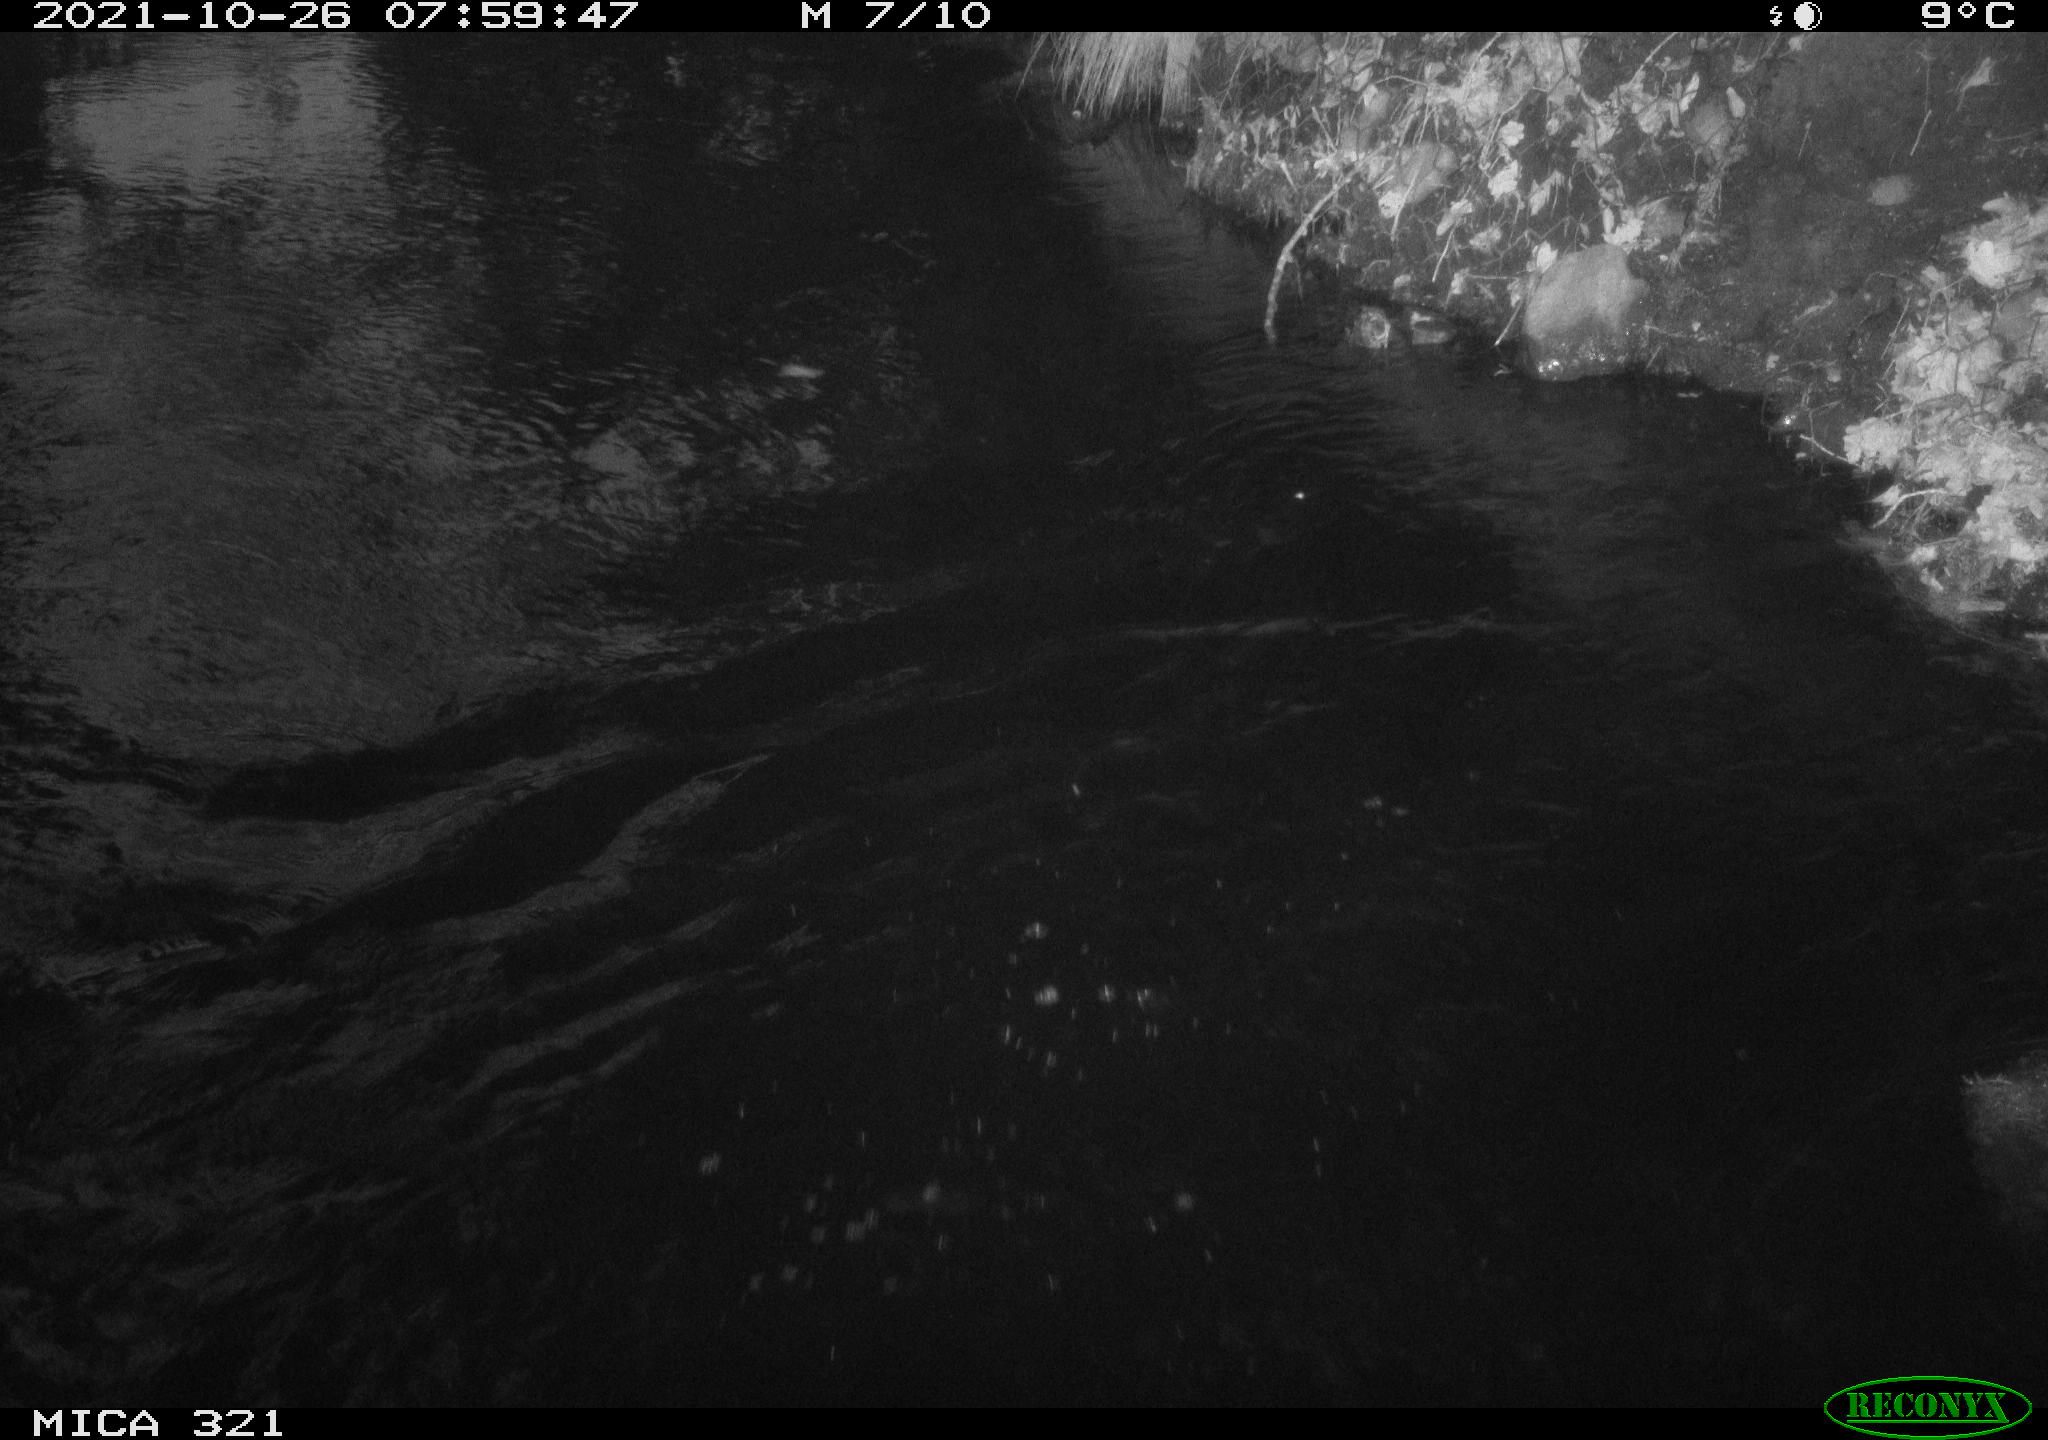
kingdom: Animalia
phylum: Chordata
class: Aves
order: Anseriformes
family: Anatidae
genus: Anas
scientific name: Anas platyrhynchos
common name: Mallard
